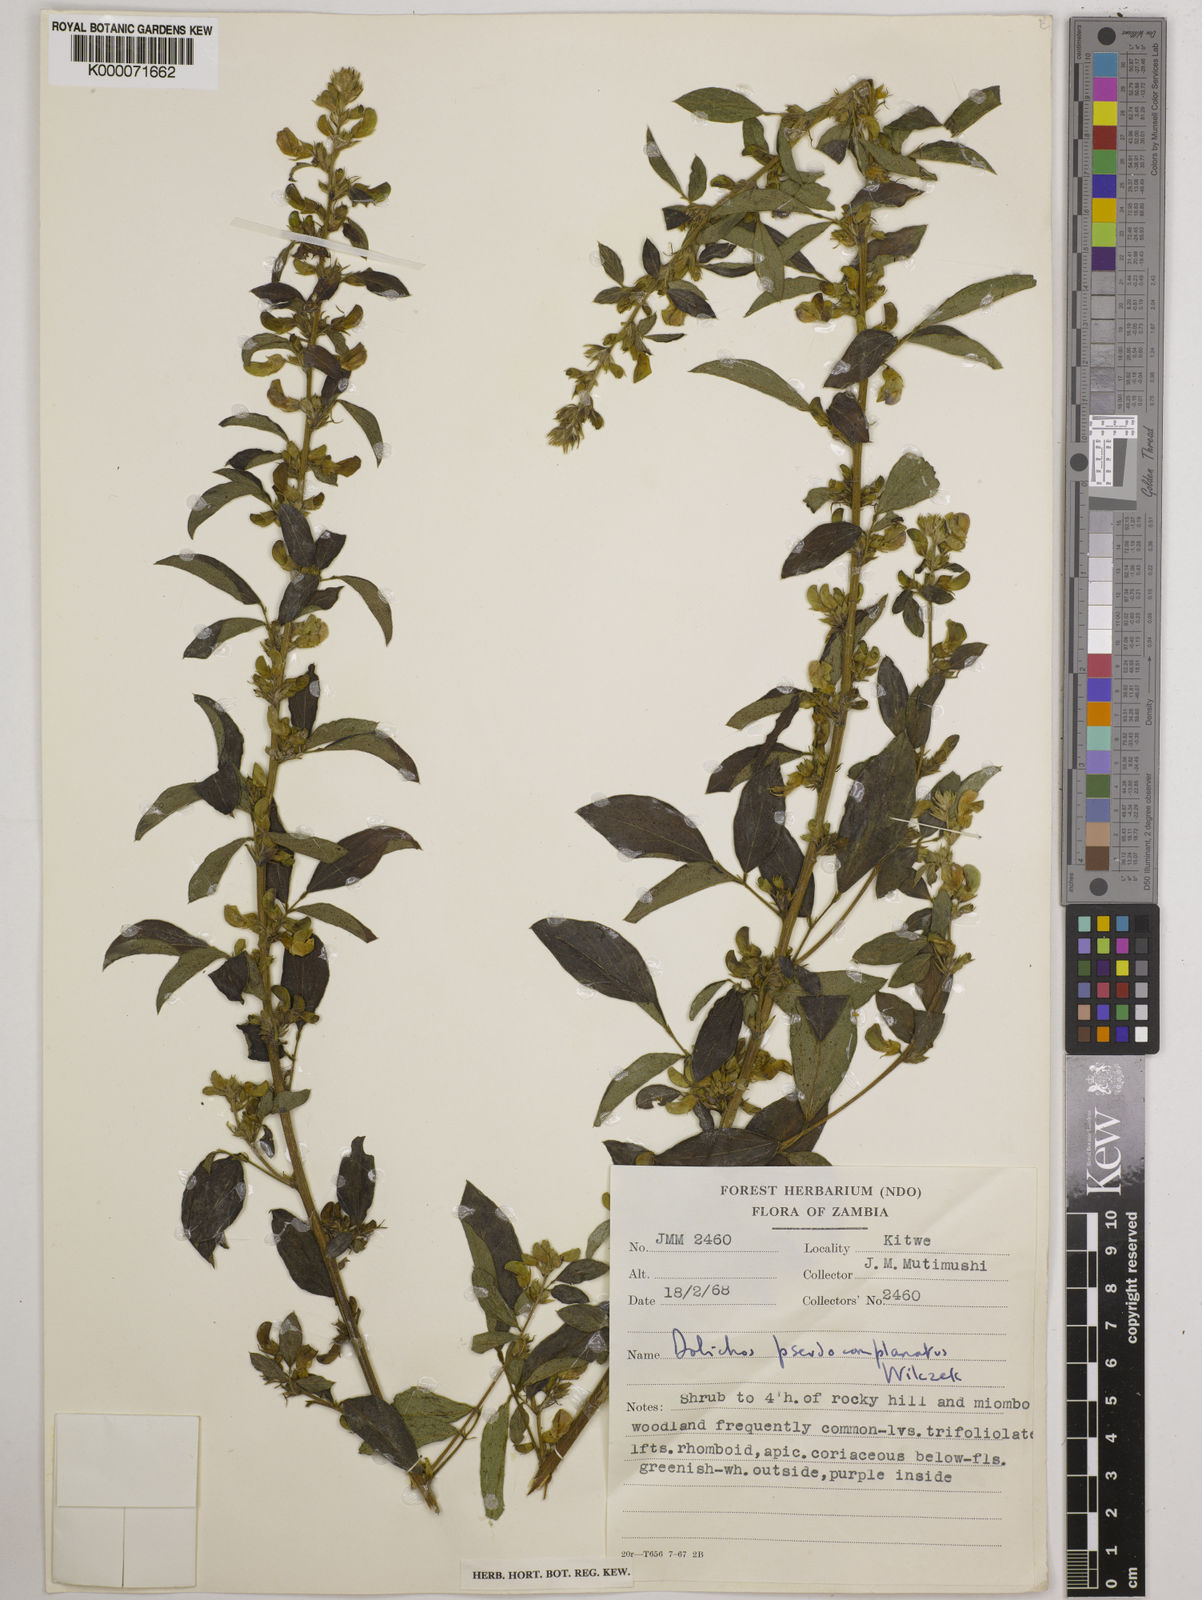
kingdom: Plantae
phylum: Tracheophyta
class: Magnoliopsida
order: Fabales
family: Fabaceae
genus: Dolichos
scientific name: Dolichos
